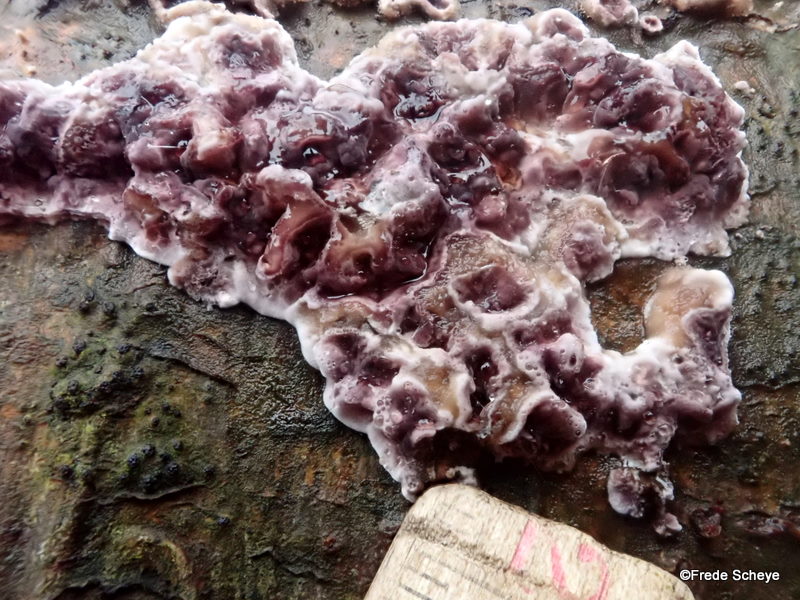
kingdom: Fungi
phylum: Basidiomycota
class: Agaricomycetes
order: Agaricales
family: Cyphellaceae
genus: Chondrostereum
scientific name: Chondrostereum purpureum
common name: purpurlædersvamp
